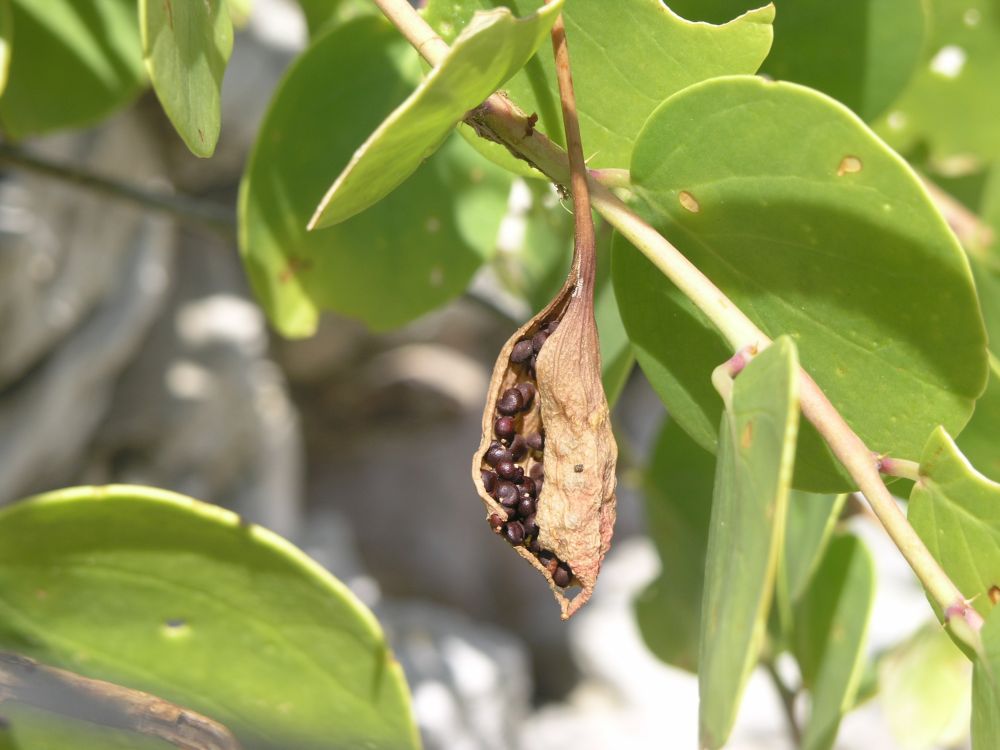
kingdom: Plantae
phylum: Tracheophyta
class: Magnoliopsida
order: Brassicales
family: Capparaceae
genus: Capparis
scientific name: Capparis spinosa
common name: Caper
